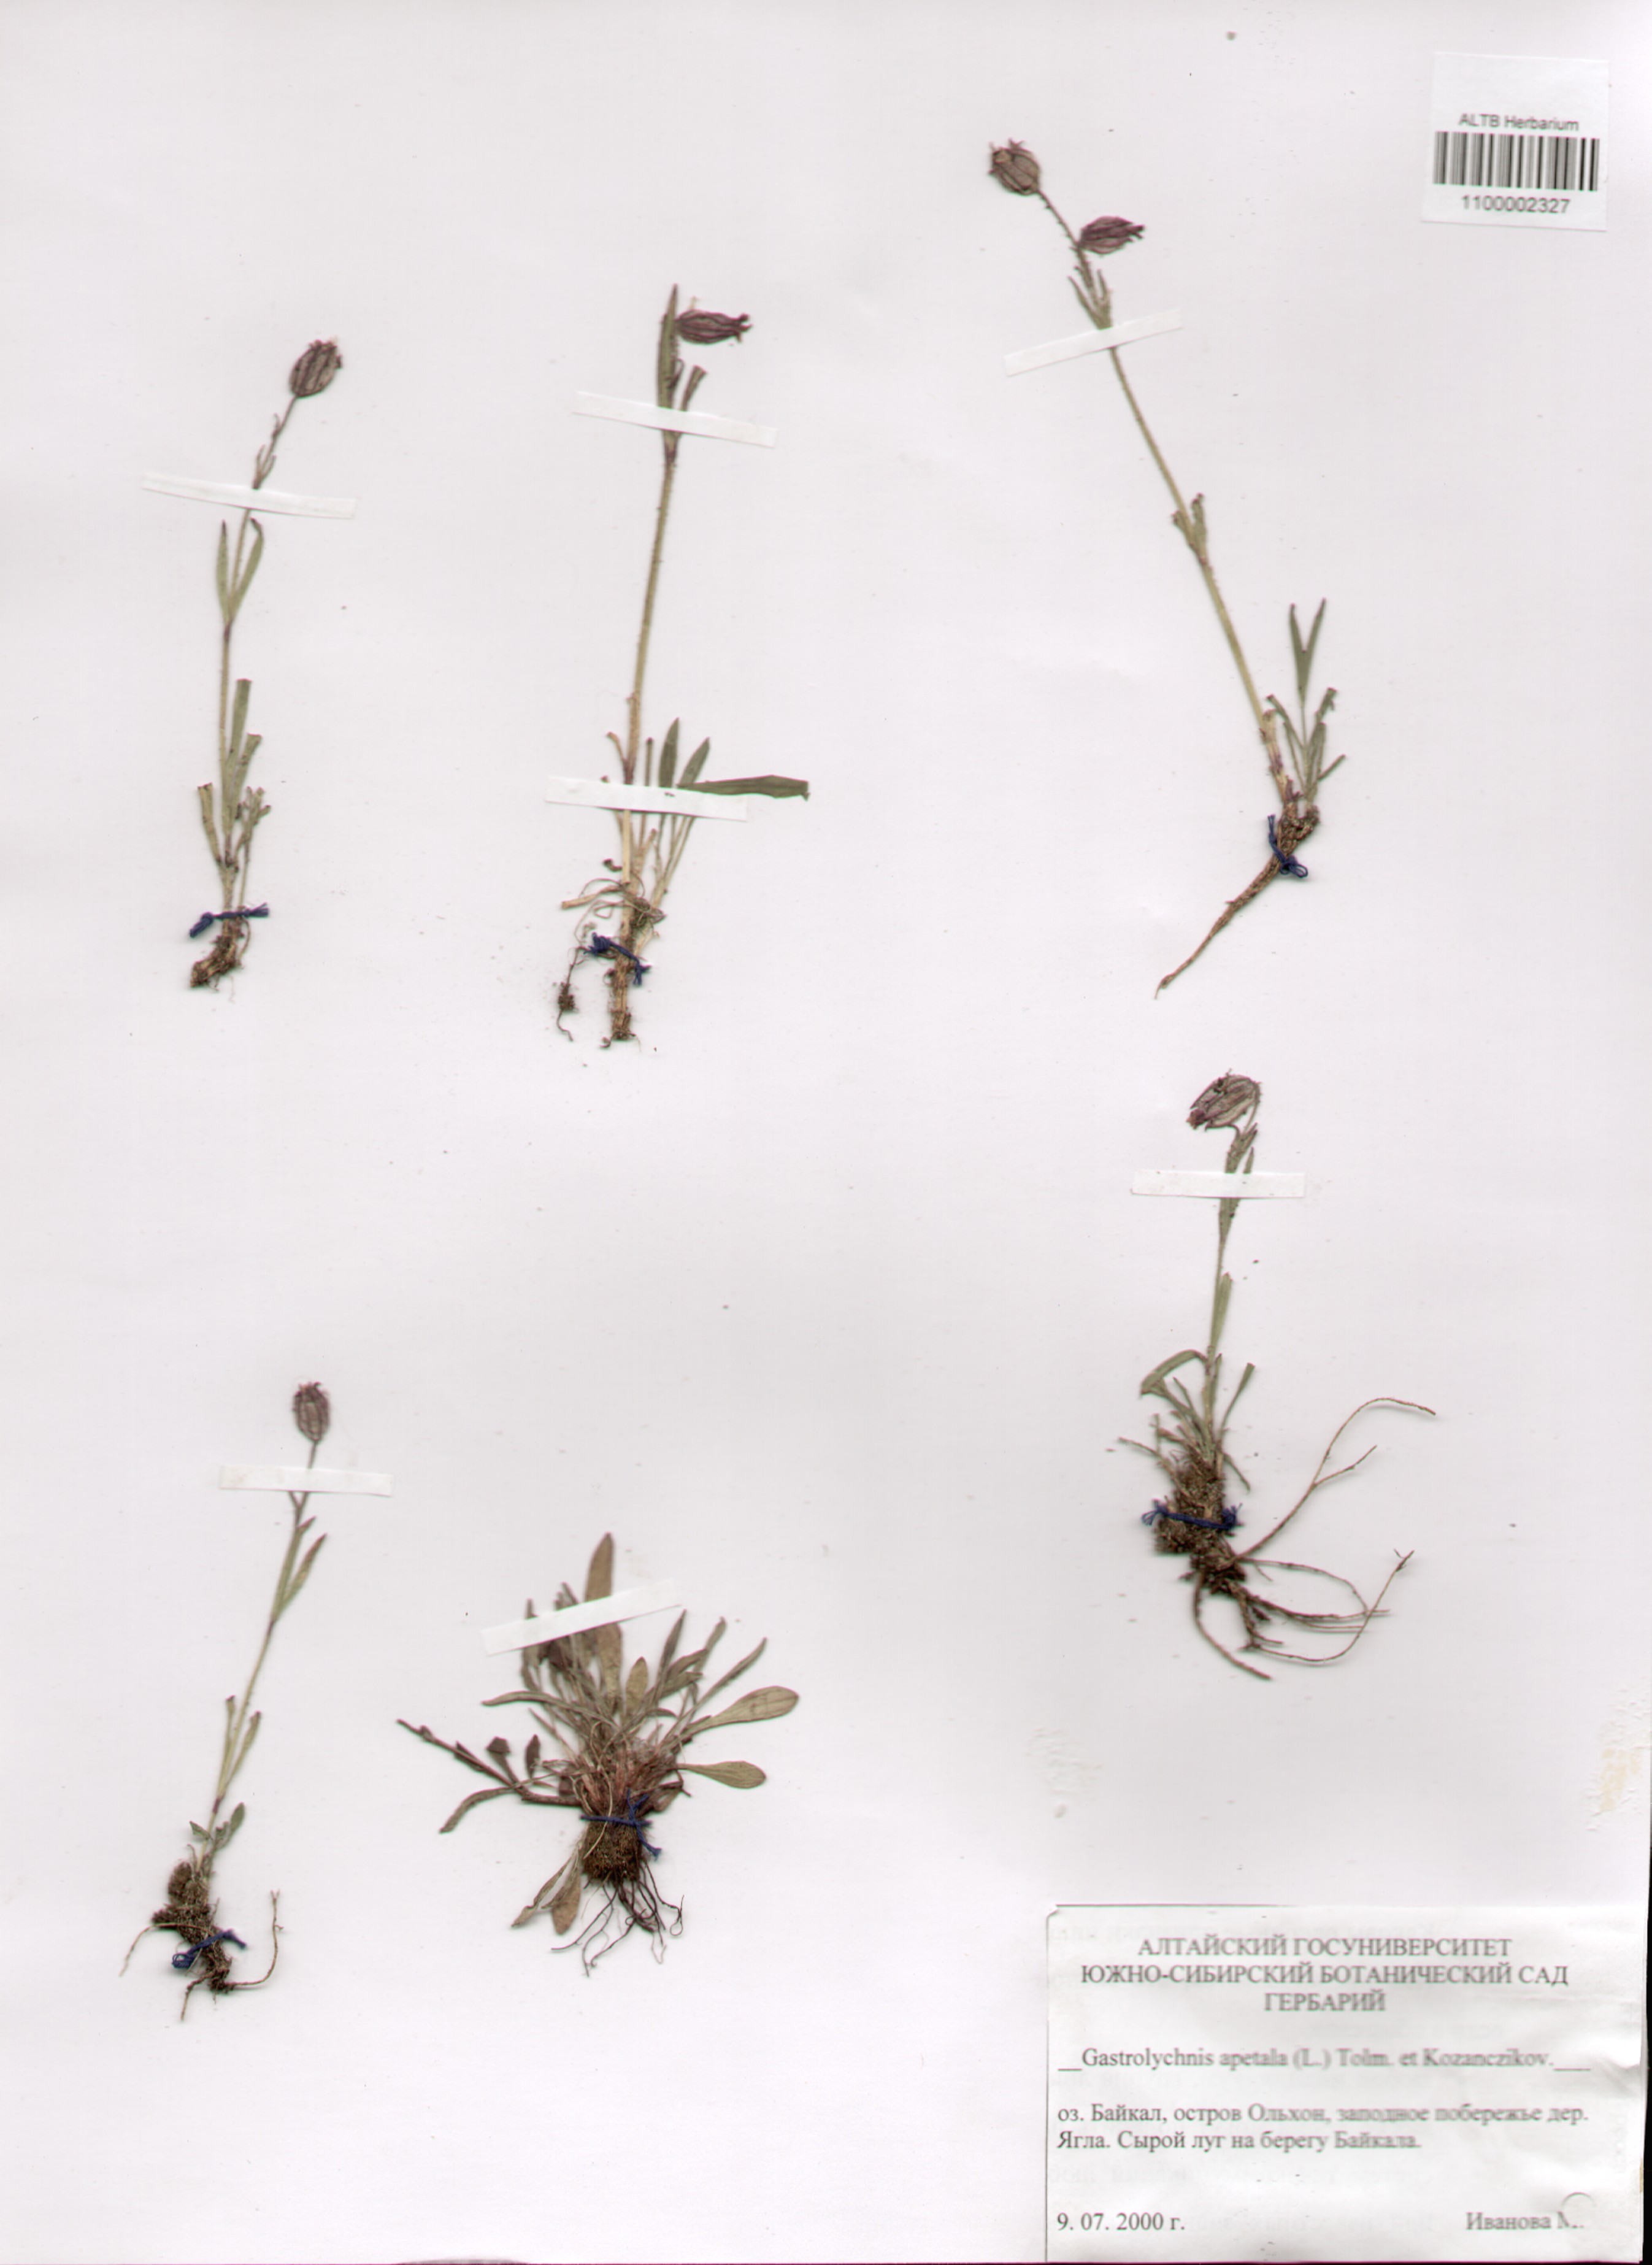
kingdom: Plantae
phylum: Tracheophyta
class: Magnoliopsida
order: Caryophyllales
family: Caryophyllaceae
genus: Silene
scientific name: Silene wahlbergella
